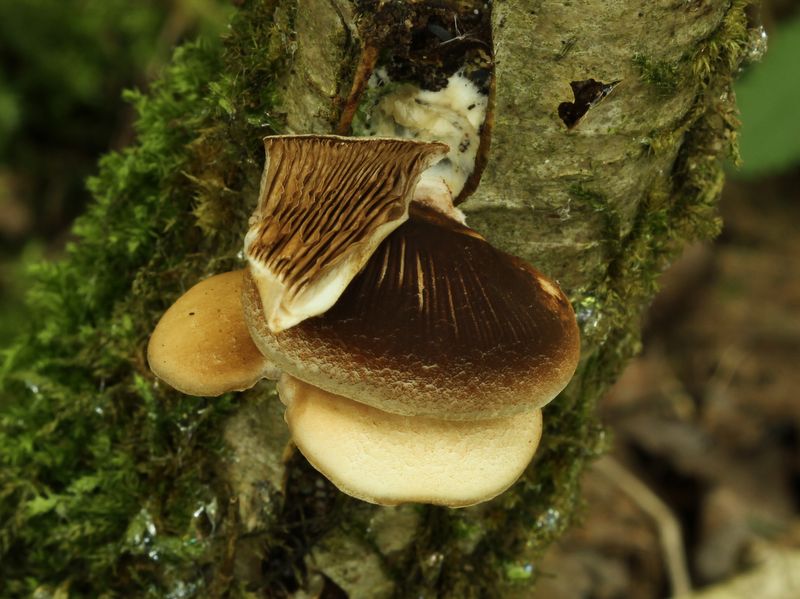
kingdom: Fungi
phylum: Basidiomycota
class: Agaricomycetes
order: Agaricales
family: Crepidotaceae
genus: Crepidotus
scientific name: Crepidotus mollis
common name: blød muslingesvamp
